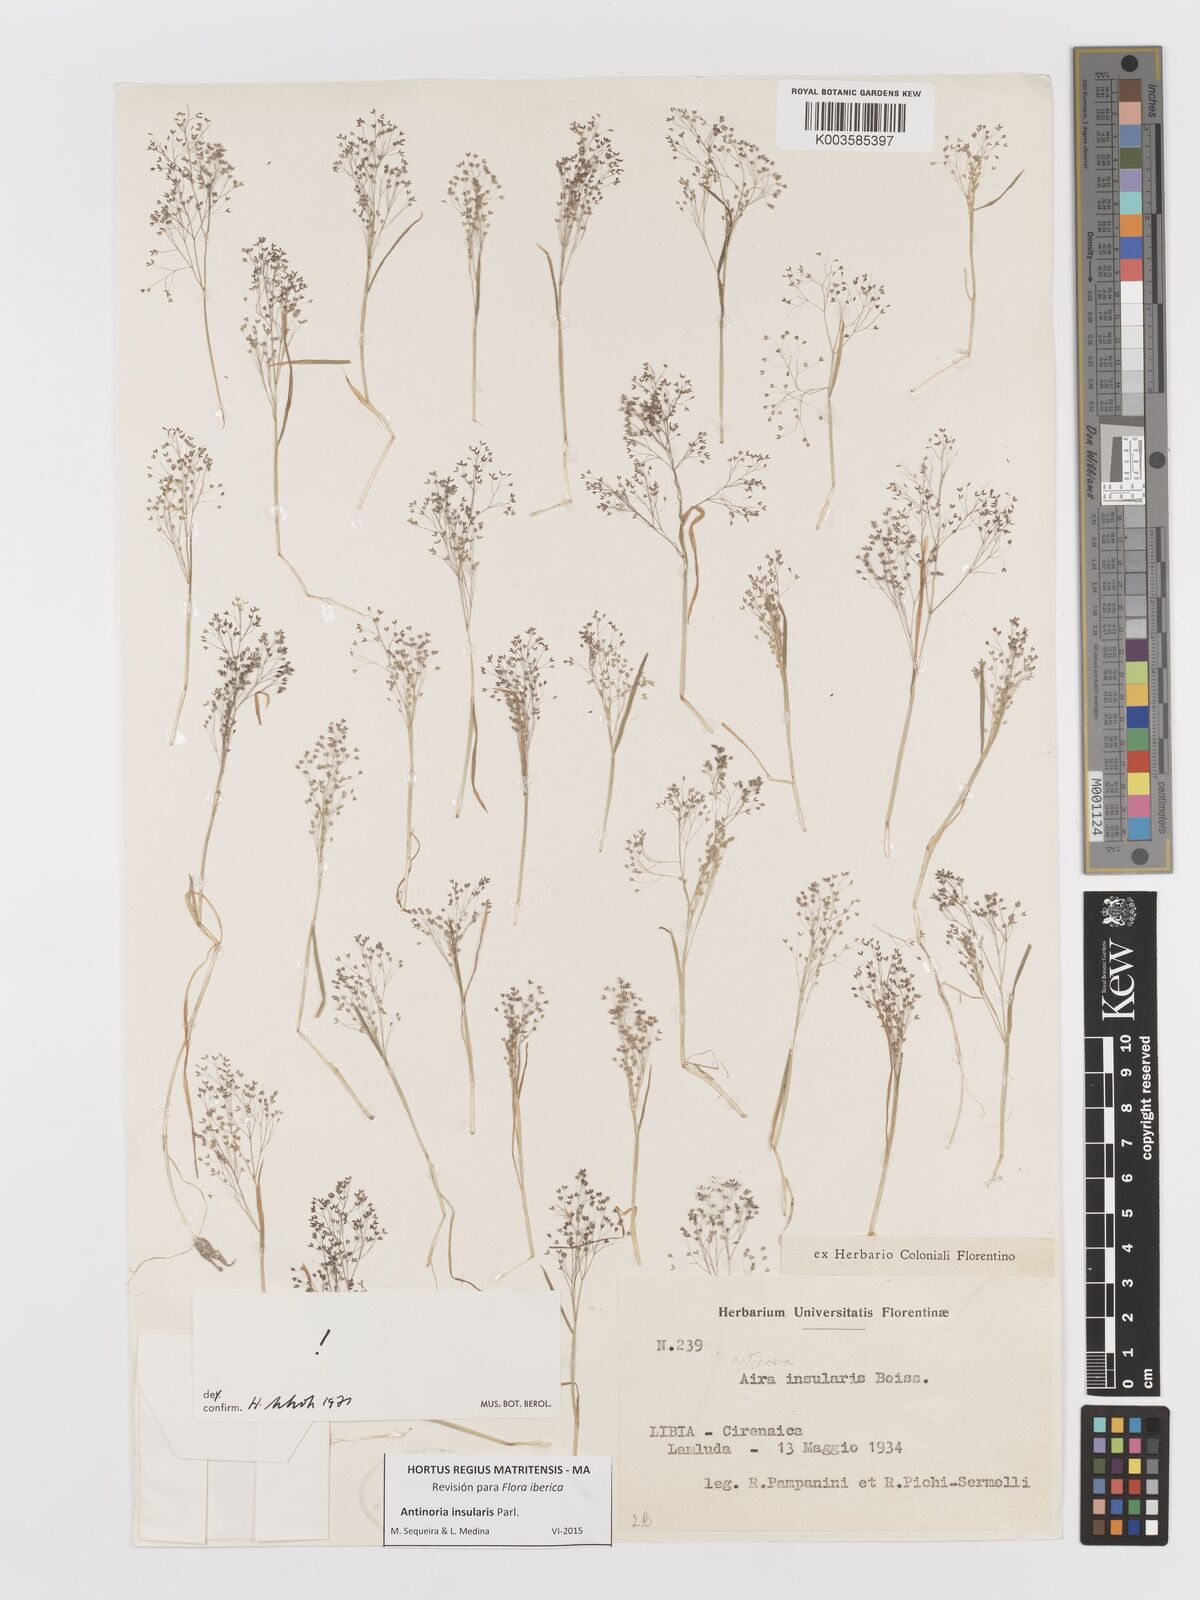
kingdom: Plantae
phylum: Tracheophyta
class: Liliopsida
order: Poales
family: Poaceae
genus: Antinoria
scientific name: Antinoria insularis
